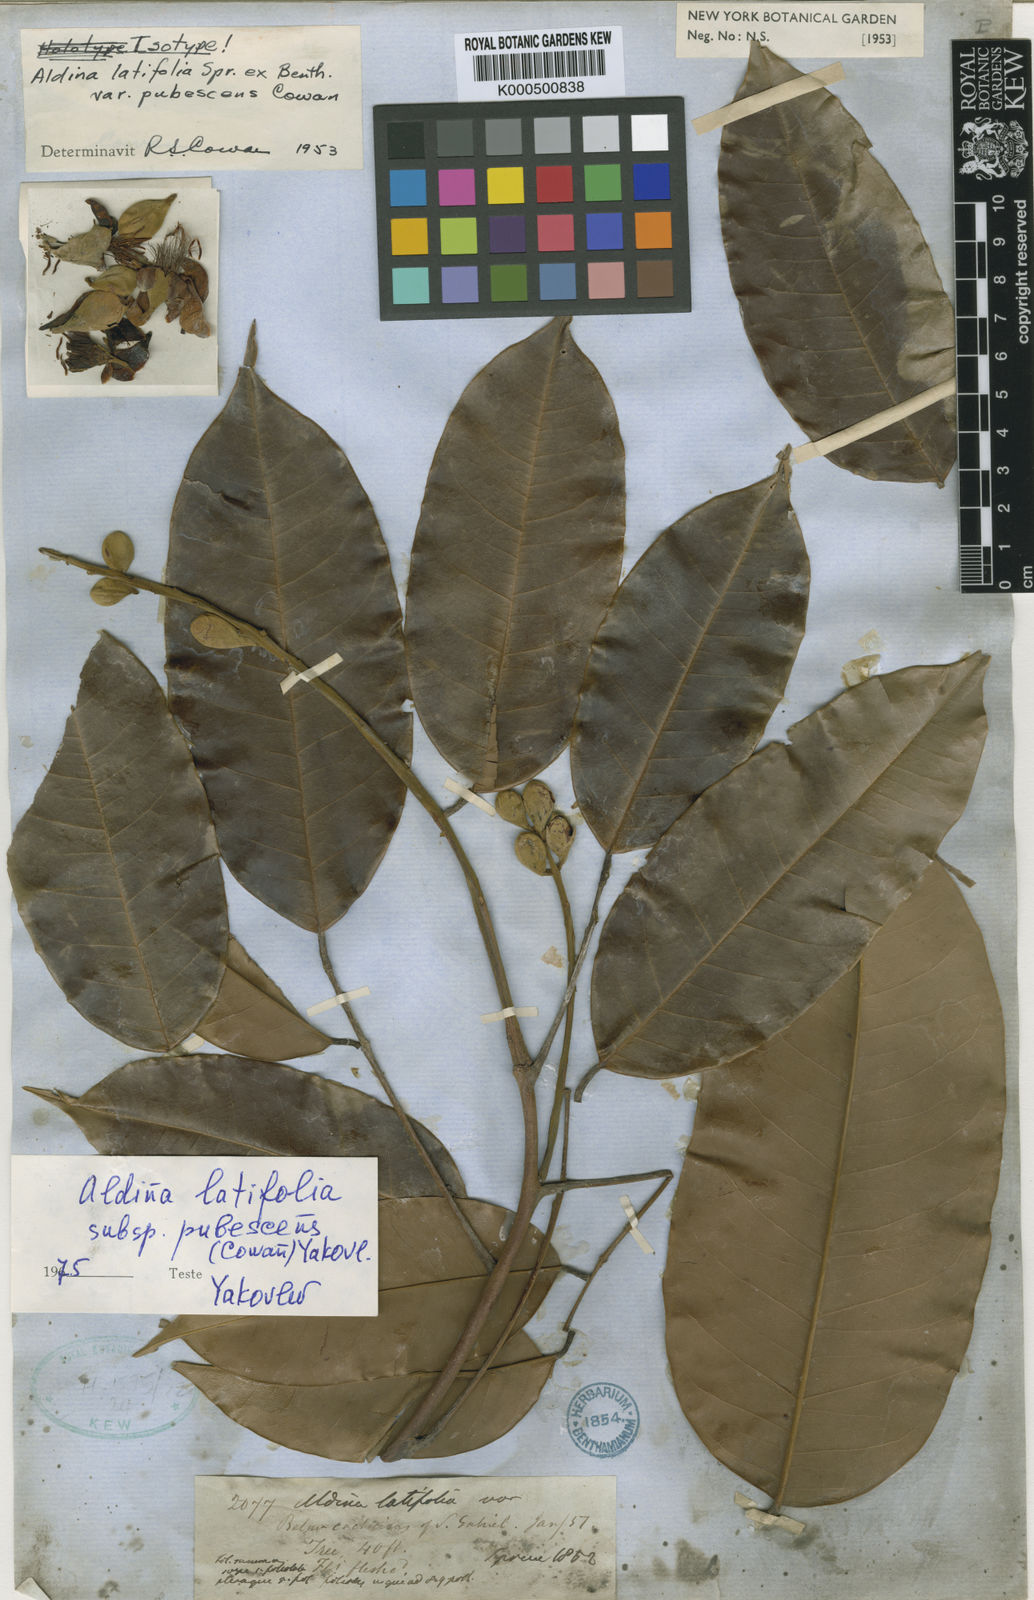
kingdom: Plantae
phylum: Tracheophyta
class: Magnoliopsida
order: Fabales
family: Fabaceae
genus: Aldina
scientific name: Aldina latifolia
